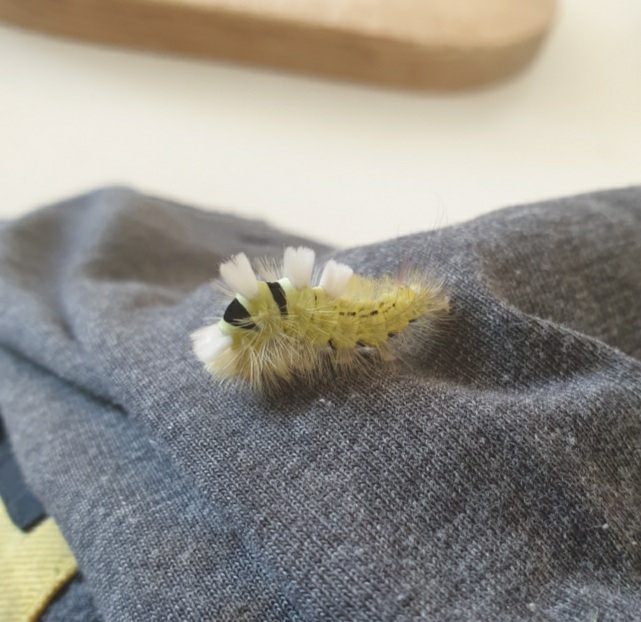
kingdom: Animalia
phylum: Arthropoda
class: Insecta
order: Lepidoptera
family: Erebidae
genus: Calliteara
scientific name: Calliteara pudibunda
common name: Bøgenonne
